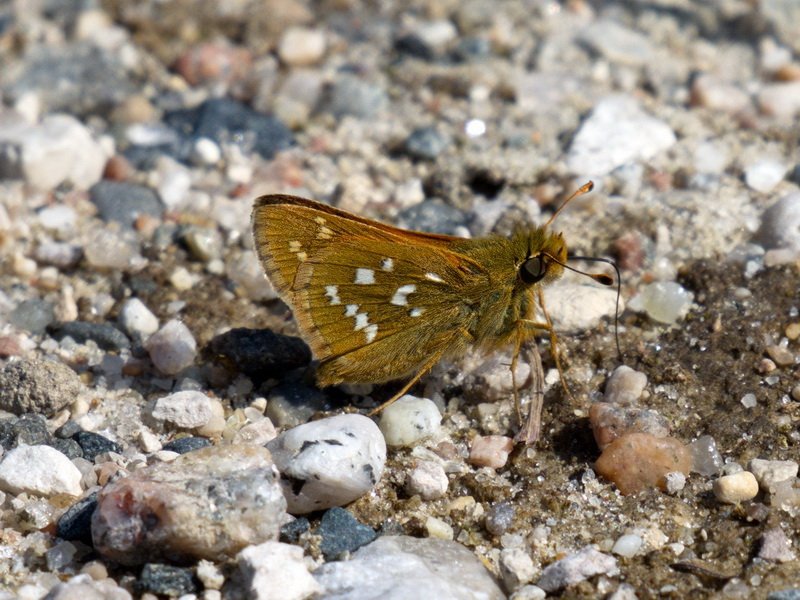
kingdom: Animalia
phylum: Arthropoda
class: Insecta
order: Lepidoptera
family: Hesperiidae
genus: Hesperia
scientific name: Hesperia comma
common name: Common Branded Skipper
